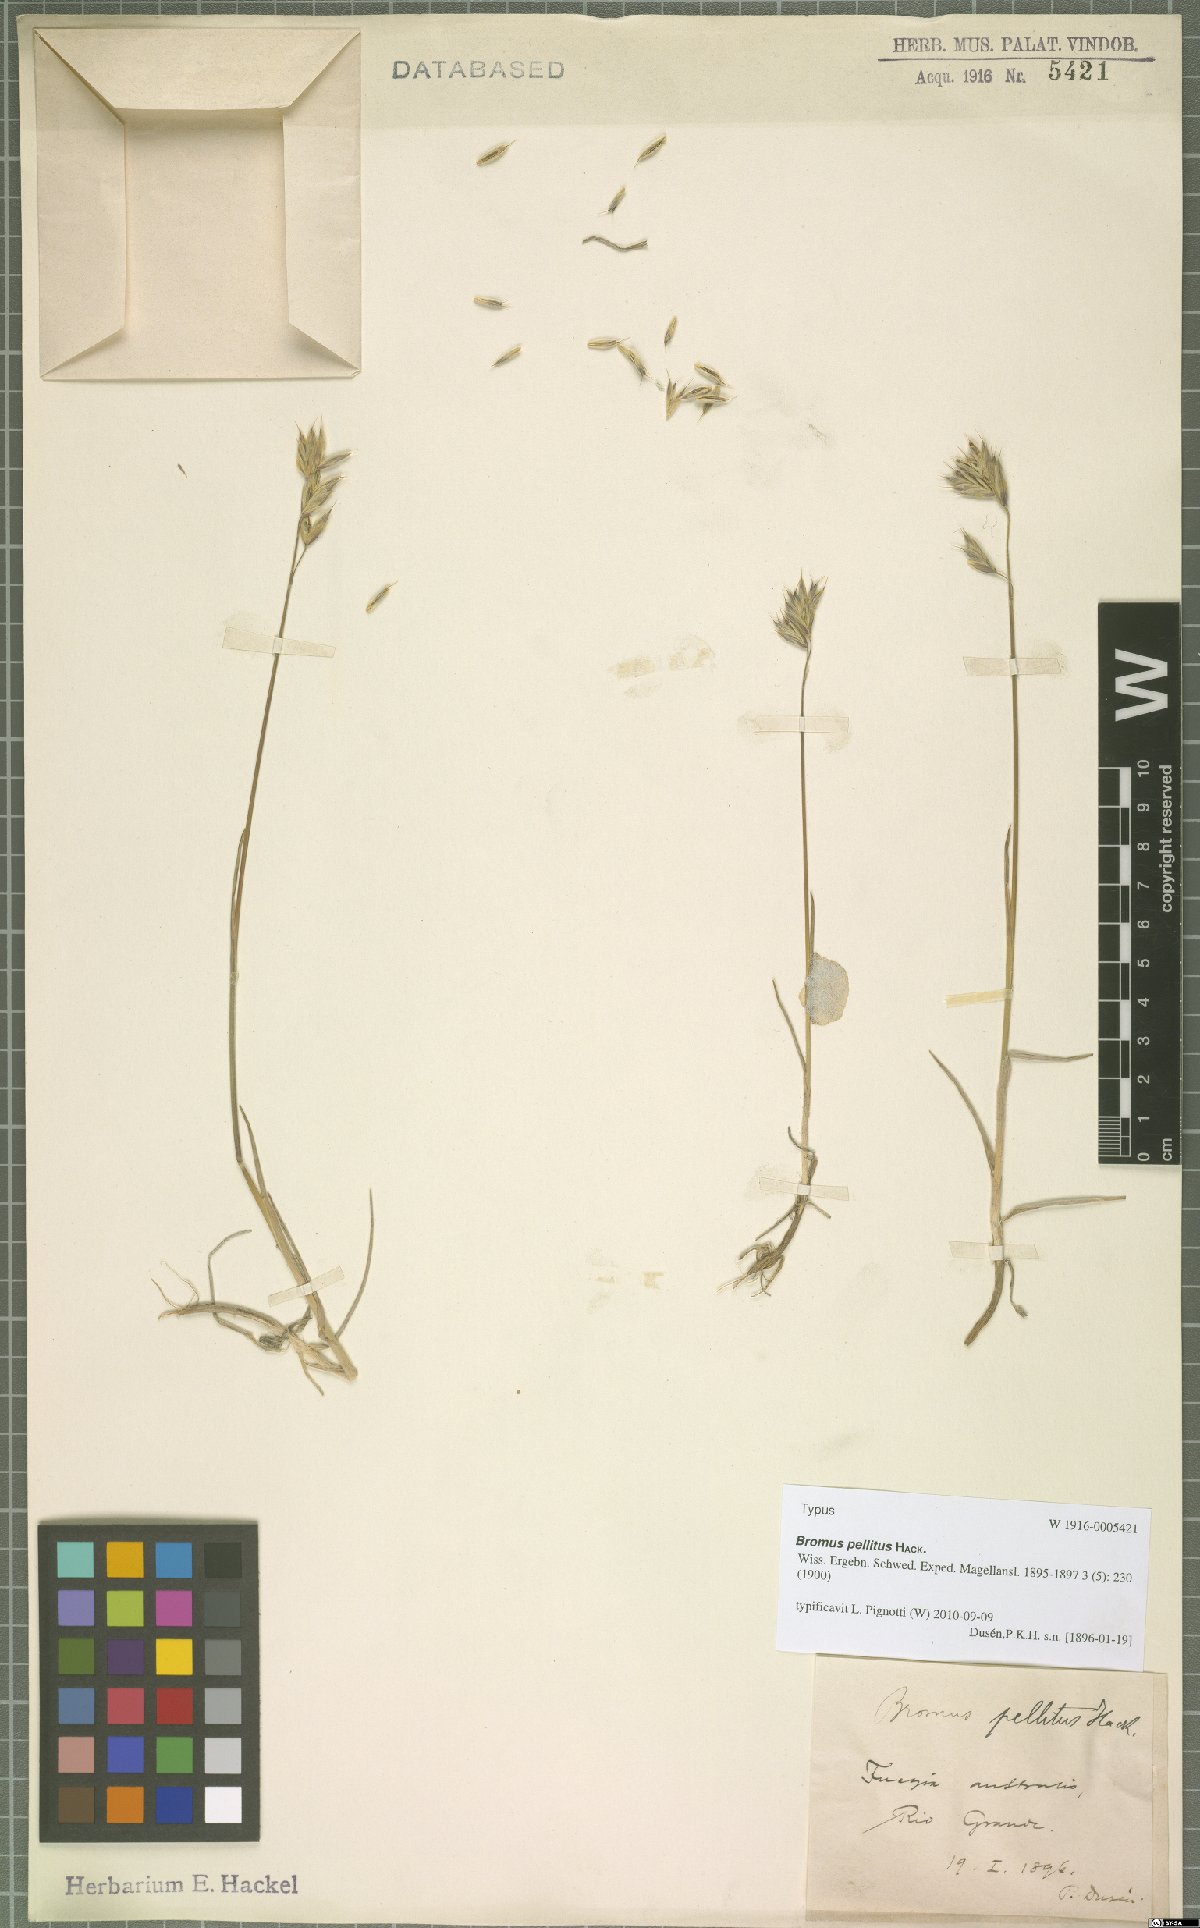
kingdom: Plantae
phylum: Tracheophyta
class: Liliopsida
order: Poales
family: Poaceae
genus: Bromus
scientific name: Bromus pellitus
